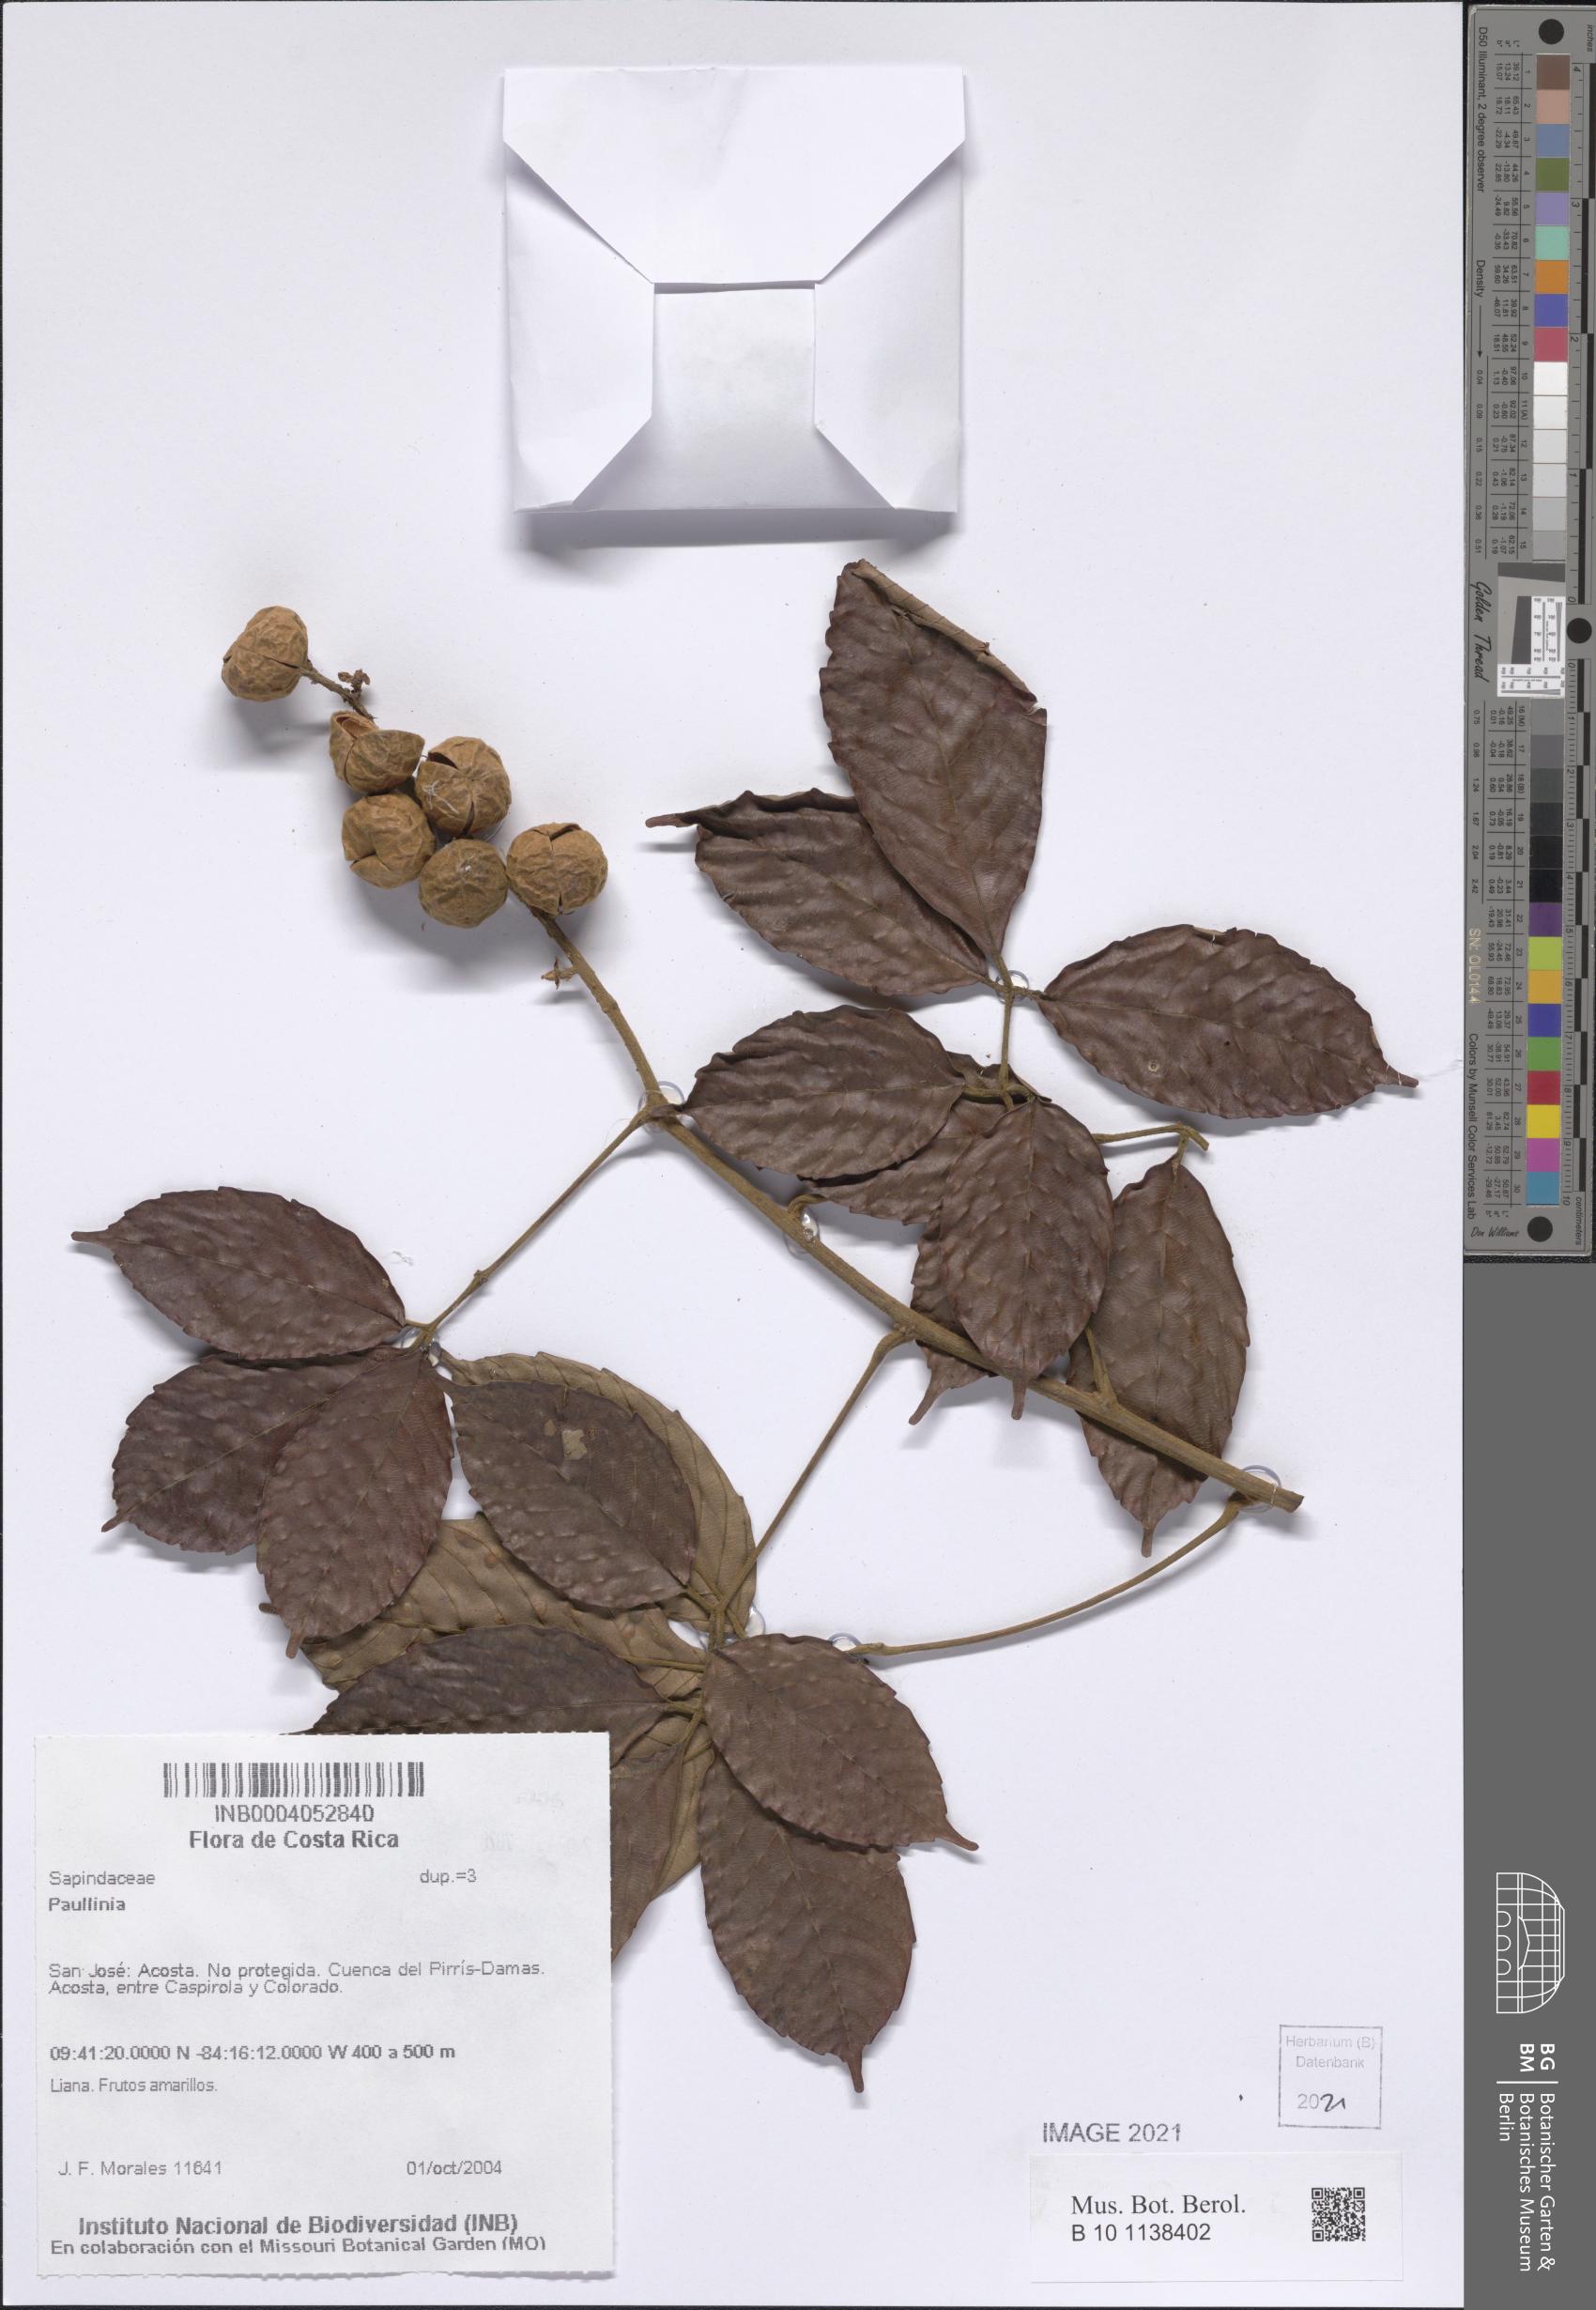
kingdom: Plantae
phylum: Tracheophyta
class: Magnoliopsida
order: Sapindales
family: Sapindaceae
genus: Paullinia
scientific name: Paullinia
